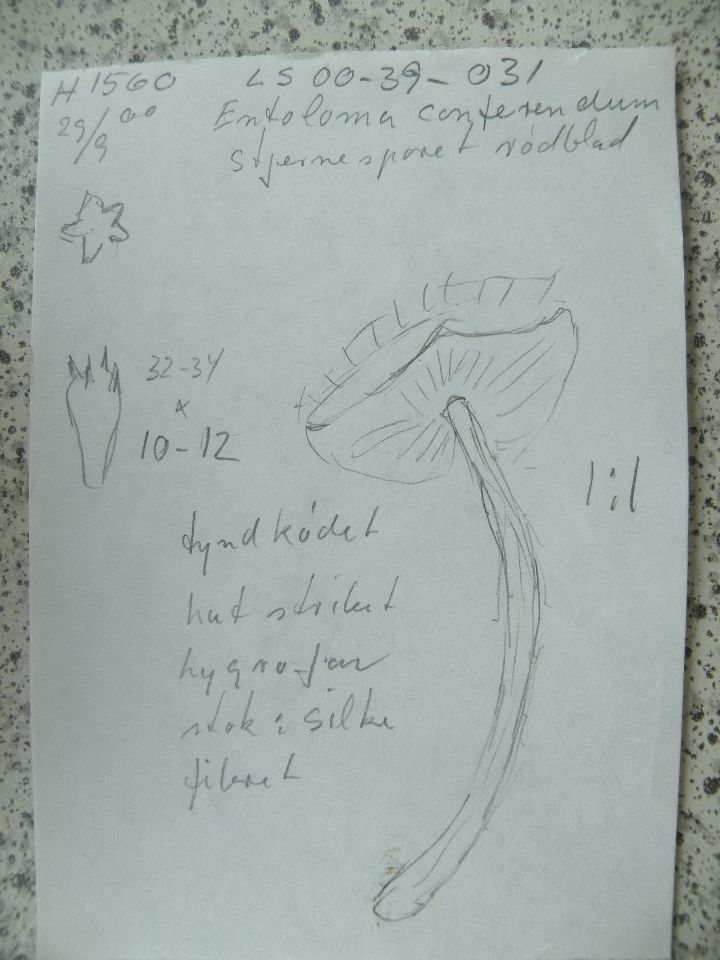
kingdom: Fungi
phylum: Basidiomycota
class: Agaricomycetes
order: Agaricales
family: Entolomataceae
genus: Entoloma
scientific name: Entoloma conferendum
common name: stjernesporet rødblad
